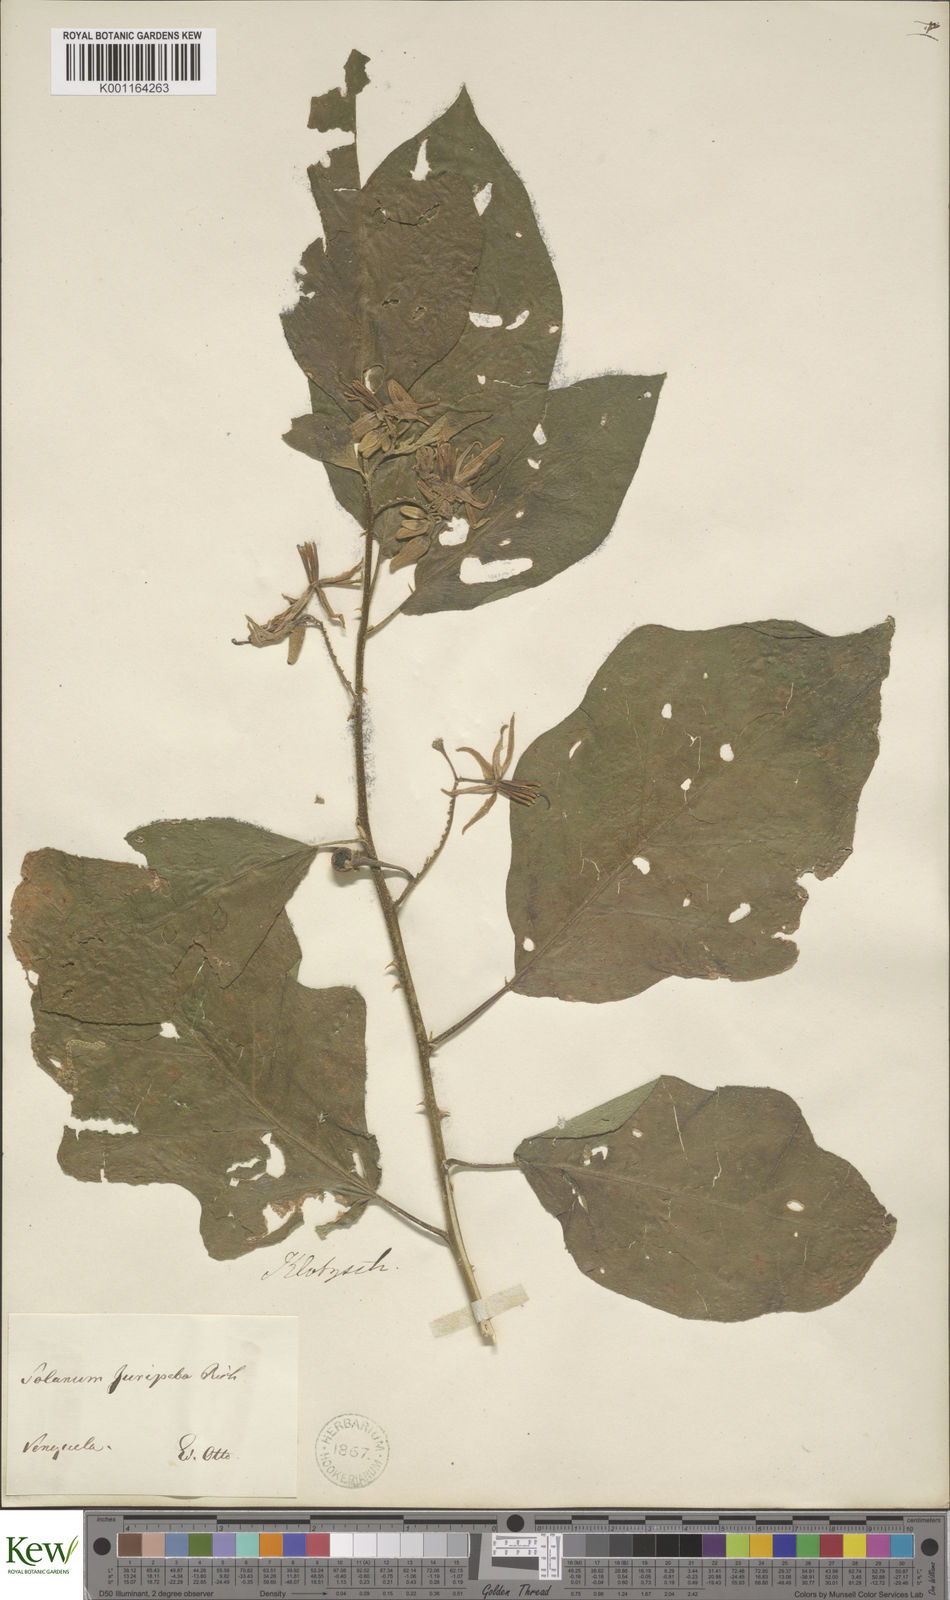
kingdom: Plantae
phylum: Tracheophyta
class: Magnoliopsida
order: Solanales
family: Solanaceae
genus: Solanum
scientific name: Solanum subinerme
